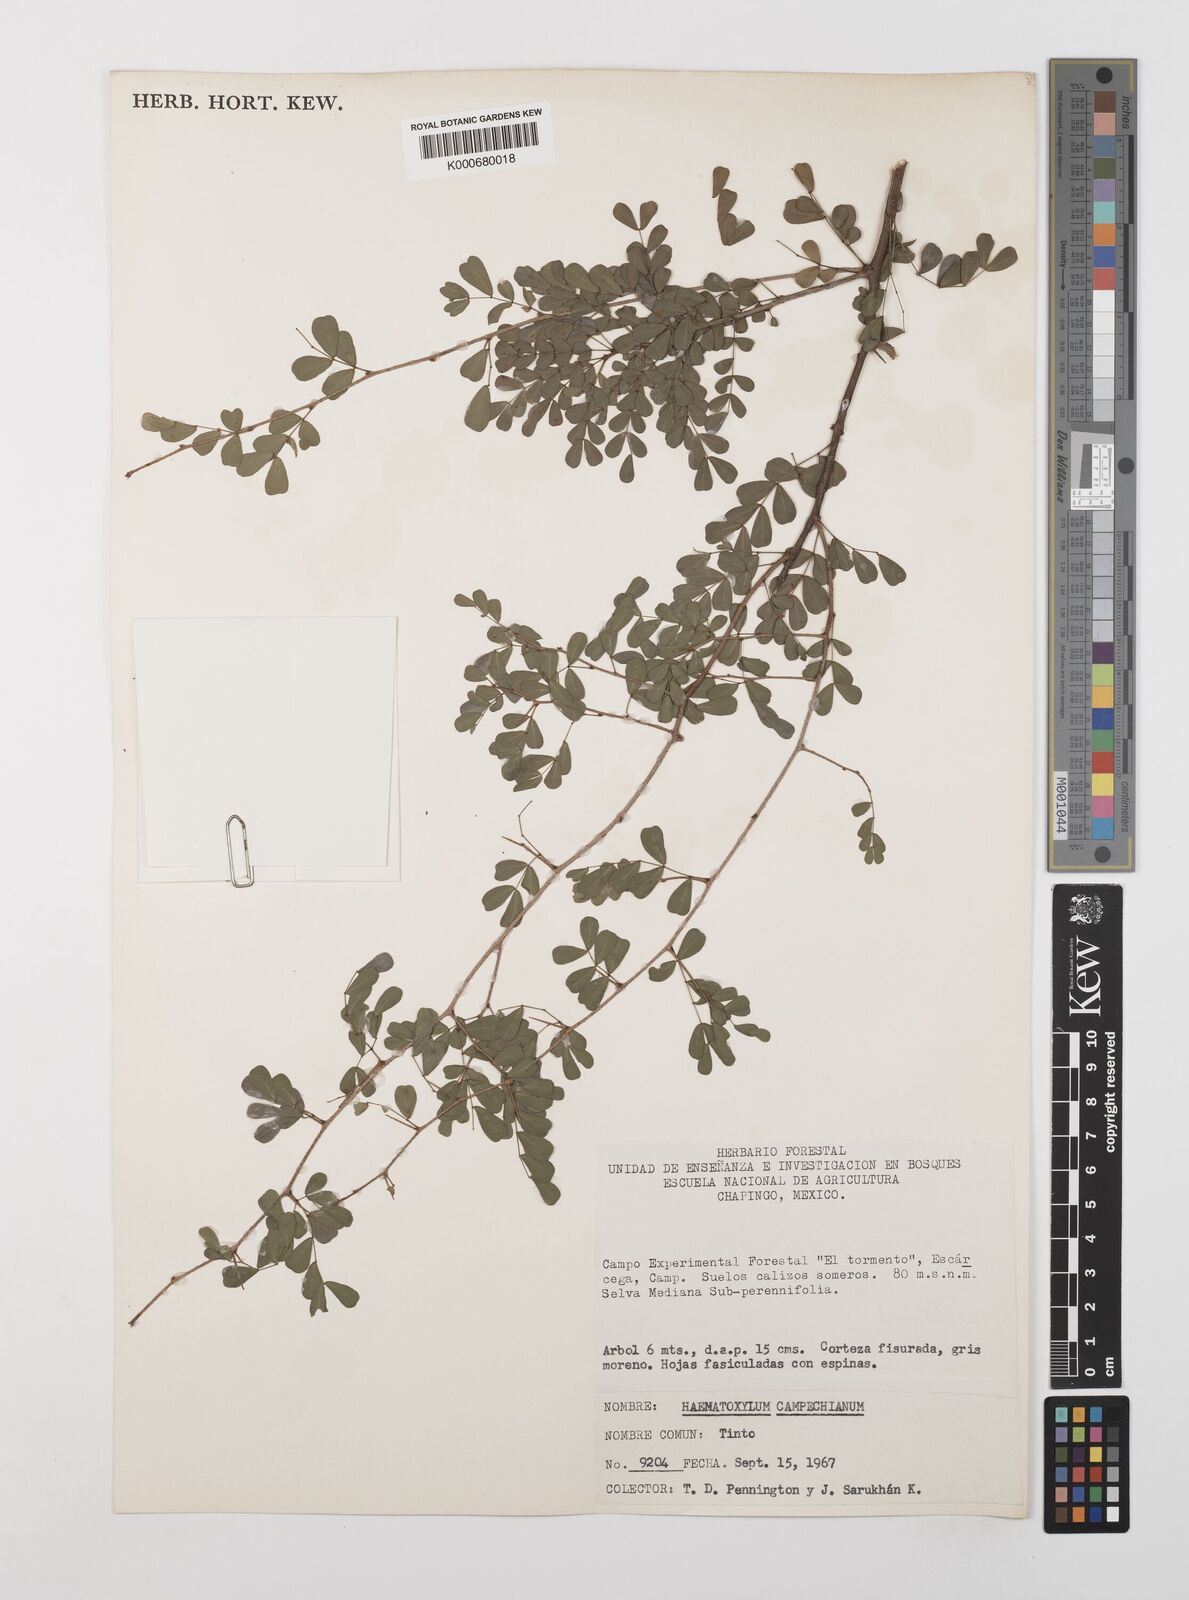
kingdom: Plantae
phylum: Tracheophyta
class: Magnoliopsida
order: Fabales
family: Fabaceae
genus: Haematoxylum
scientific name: Haematoxylum
